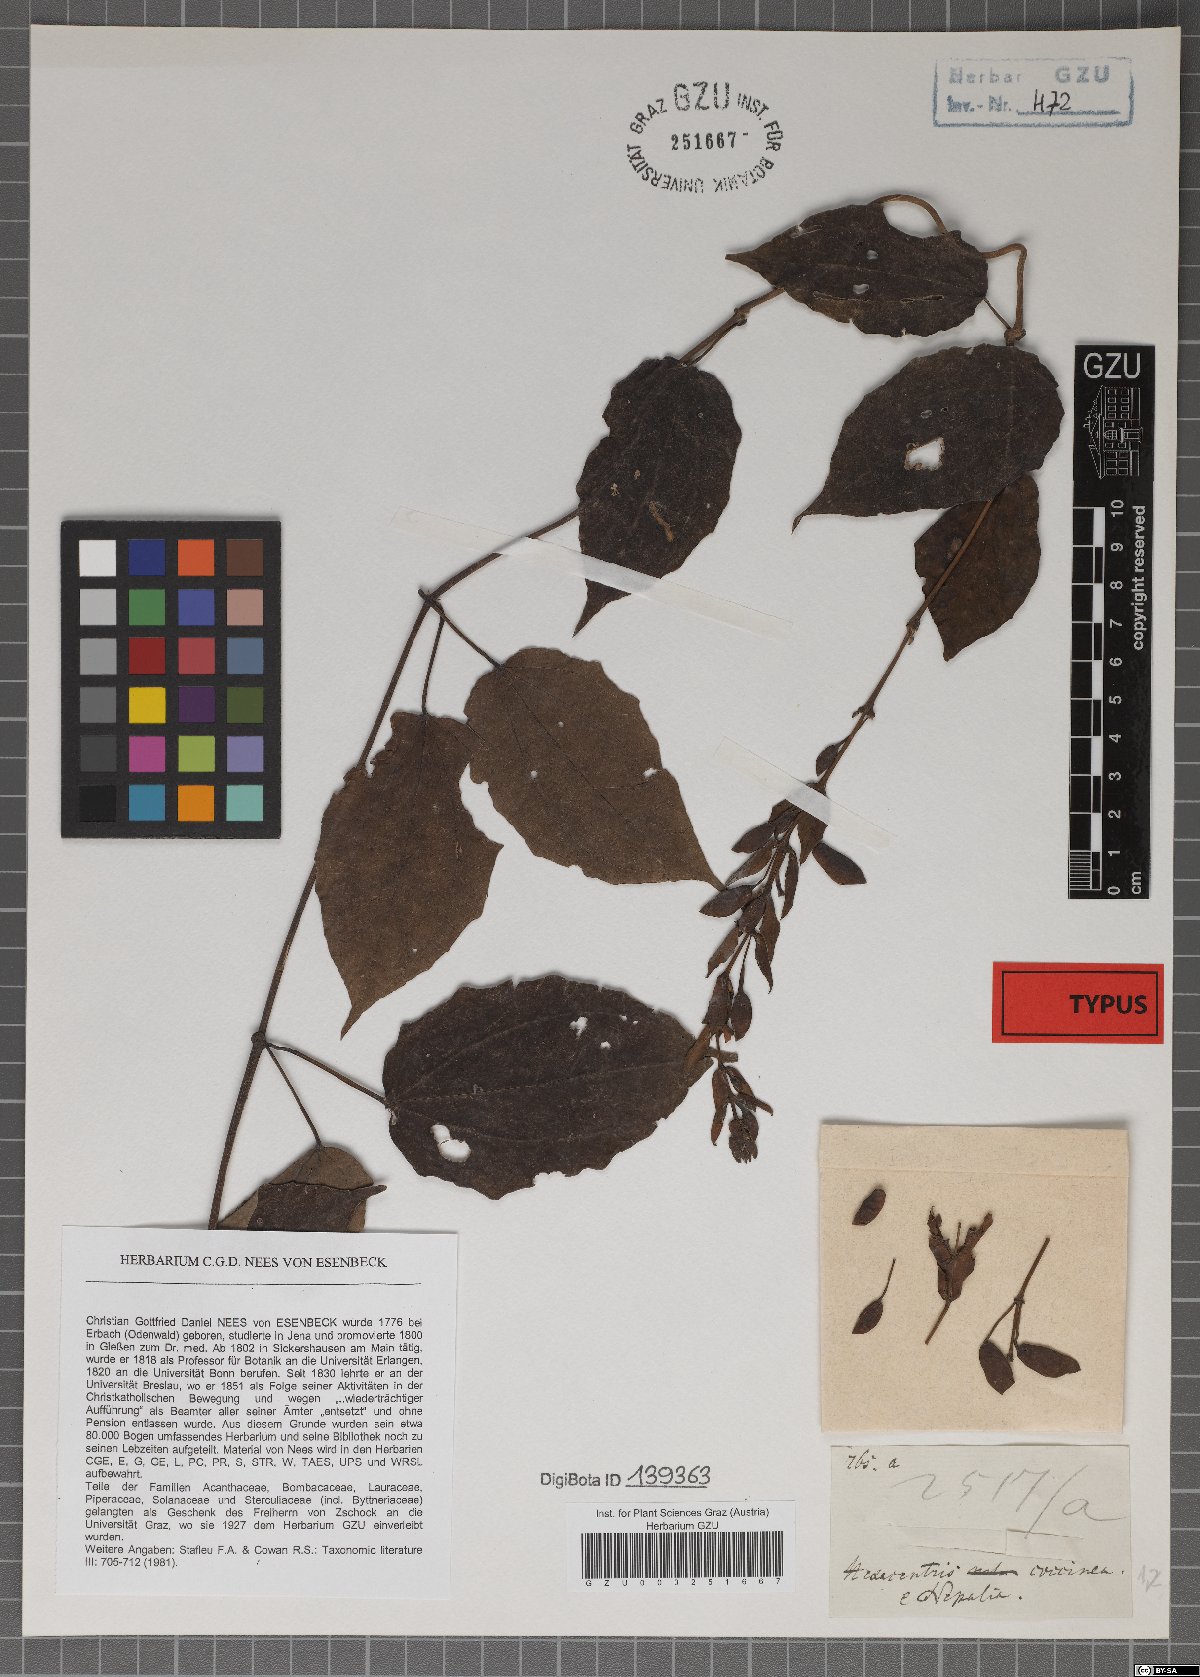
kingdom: Plantae
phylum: Tracheophyta
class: Magnoliopsida
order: Lamiales
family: Acanthaceae
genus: Thunbergia
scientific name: Thunbergia coccinea
